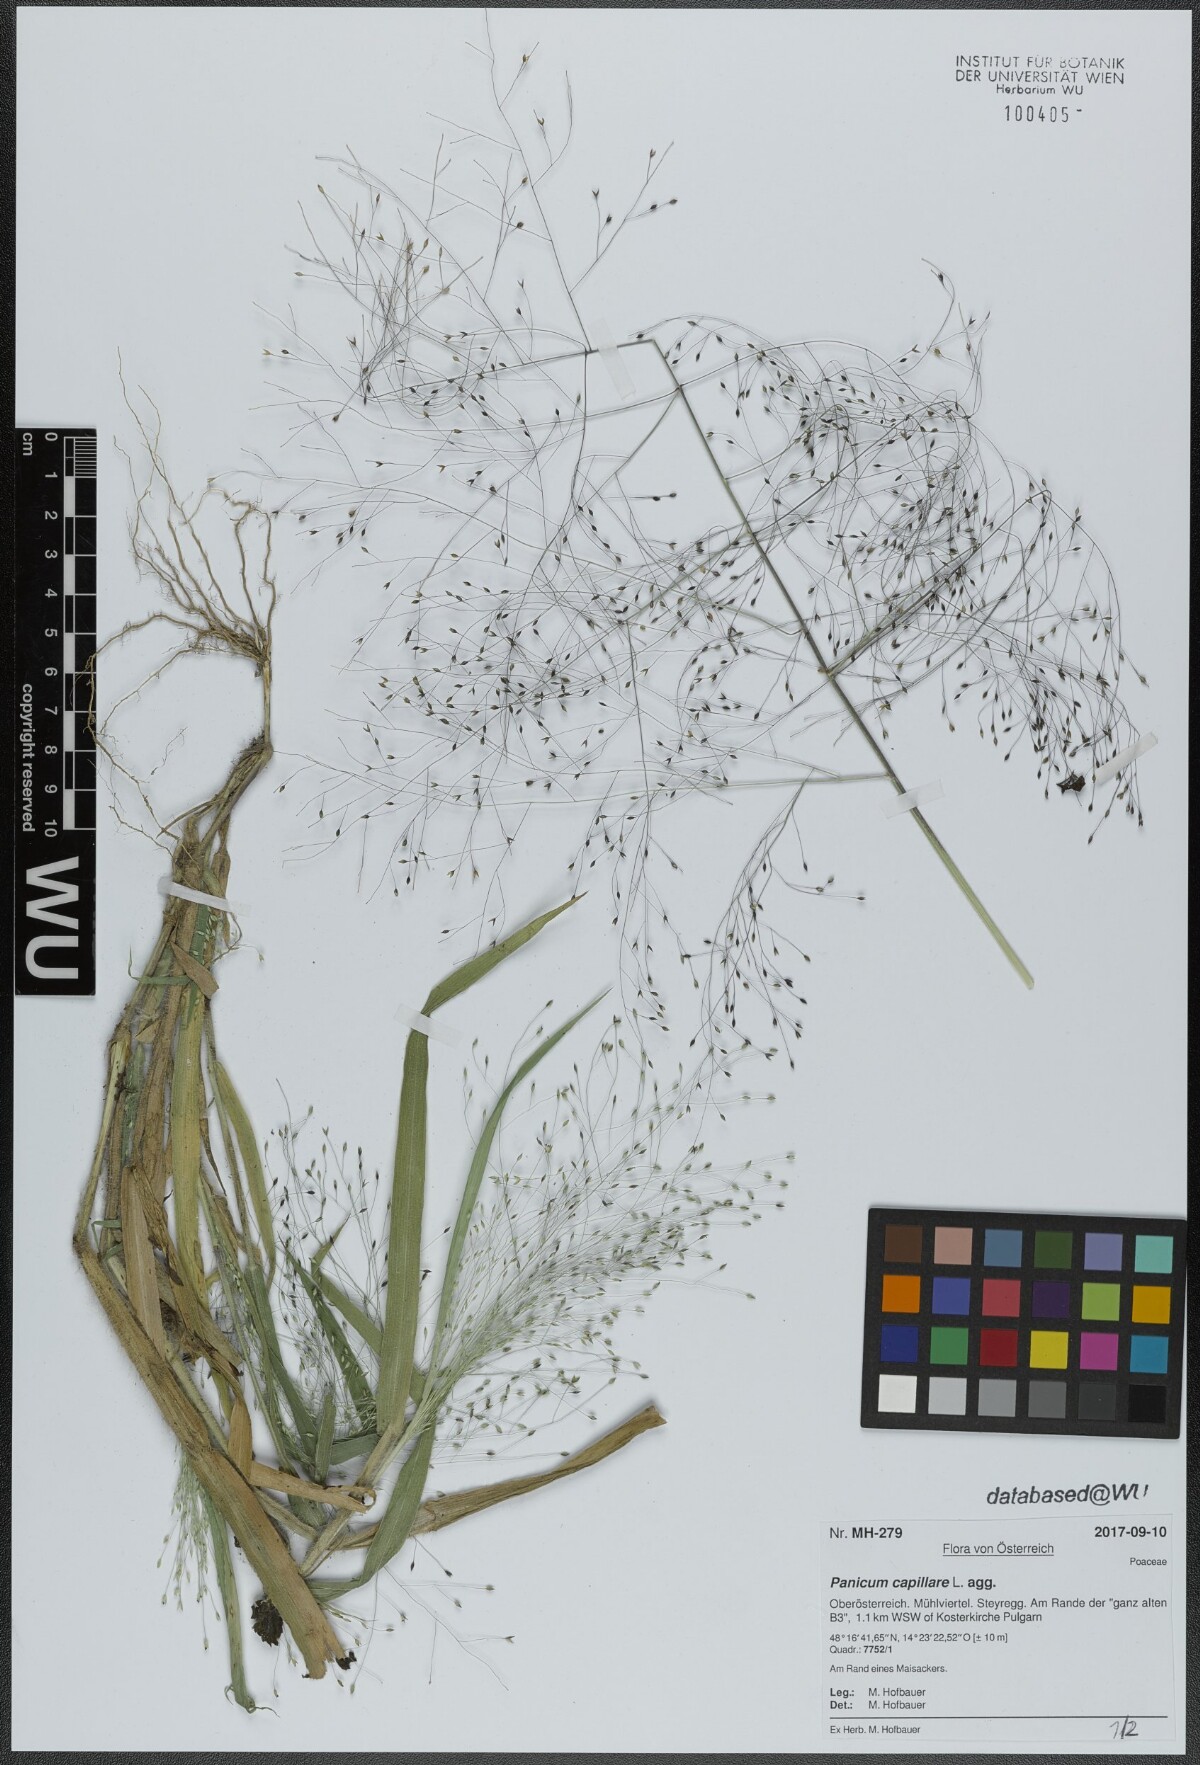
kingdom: Plantae
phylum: Tracheophyta
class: Liliopsida
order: Poales
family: Poaceae
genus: Panicum
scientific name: Panicum capillare
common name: Witch-grass
